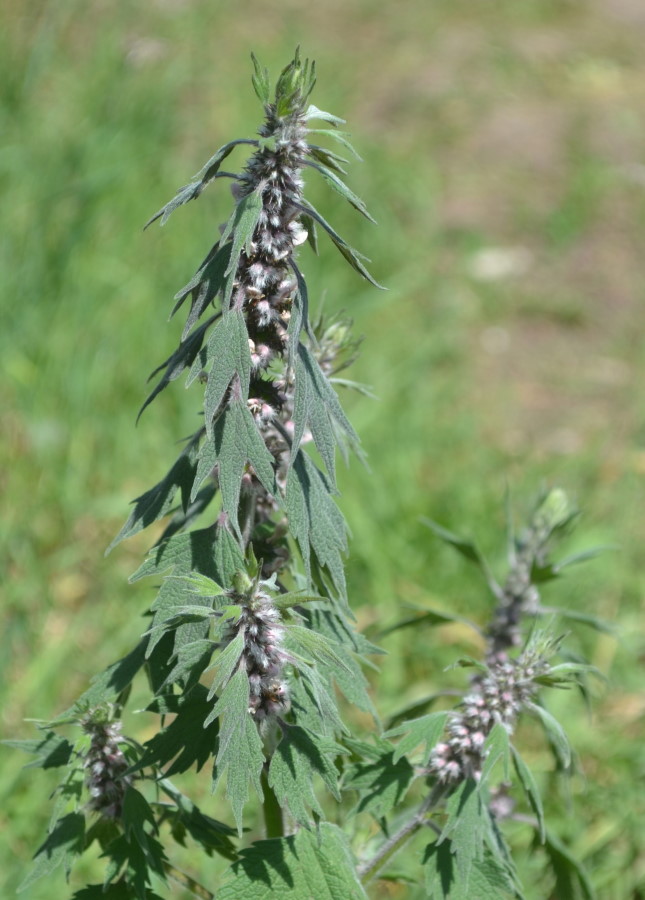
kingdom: Plantae
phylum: Tracheophyta
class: Magnoliopsida
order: Lamiales
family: Lamiaceae
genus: Leonurus
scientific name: Leonurus quinquelobatus
